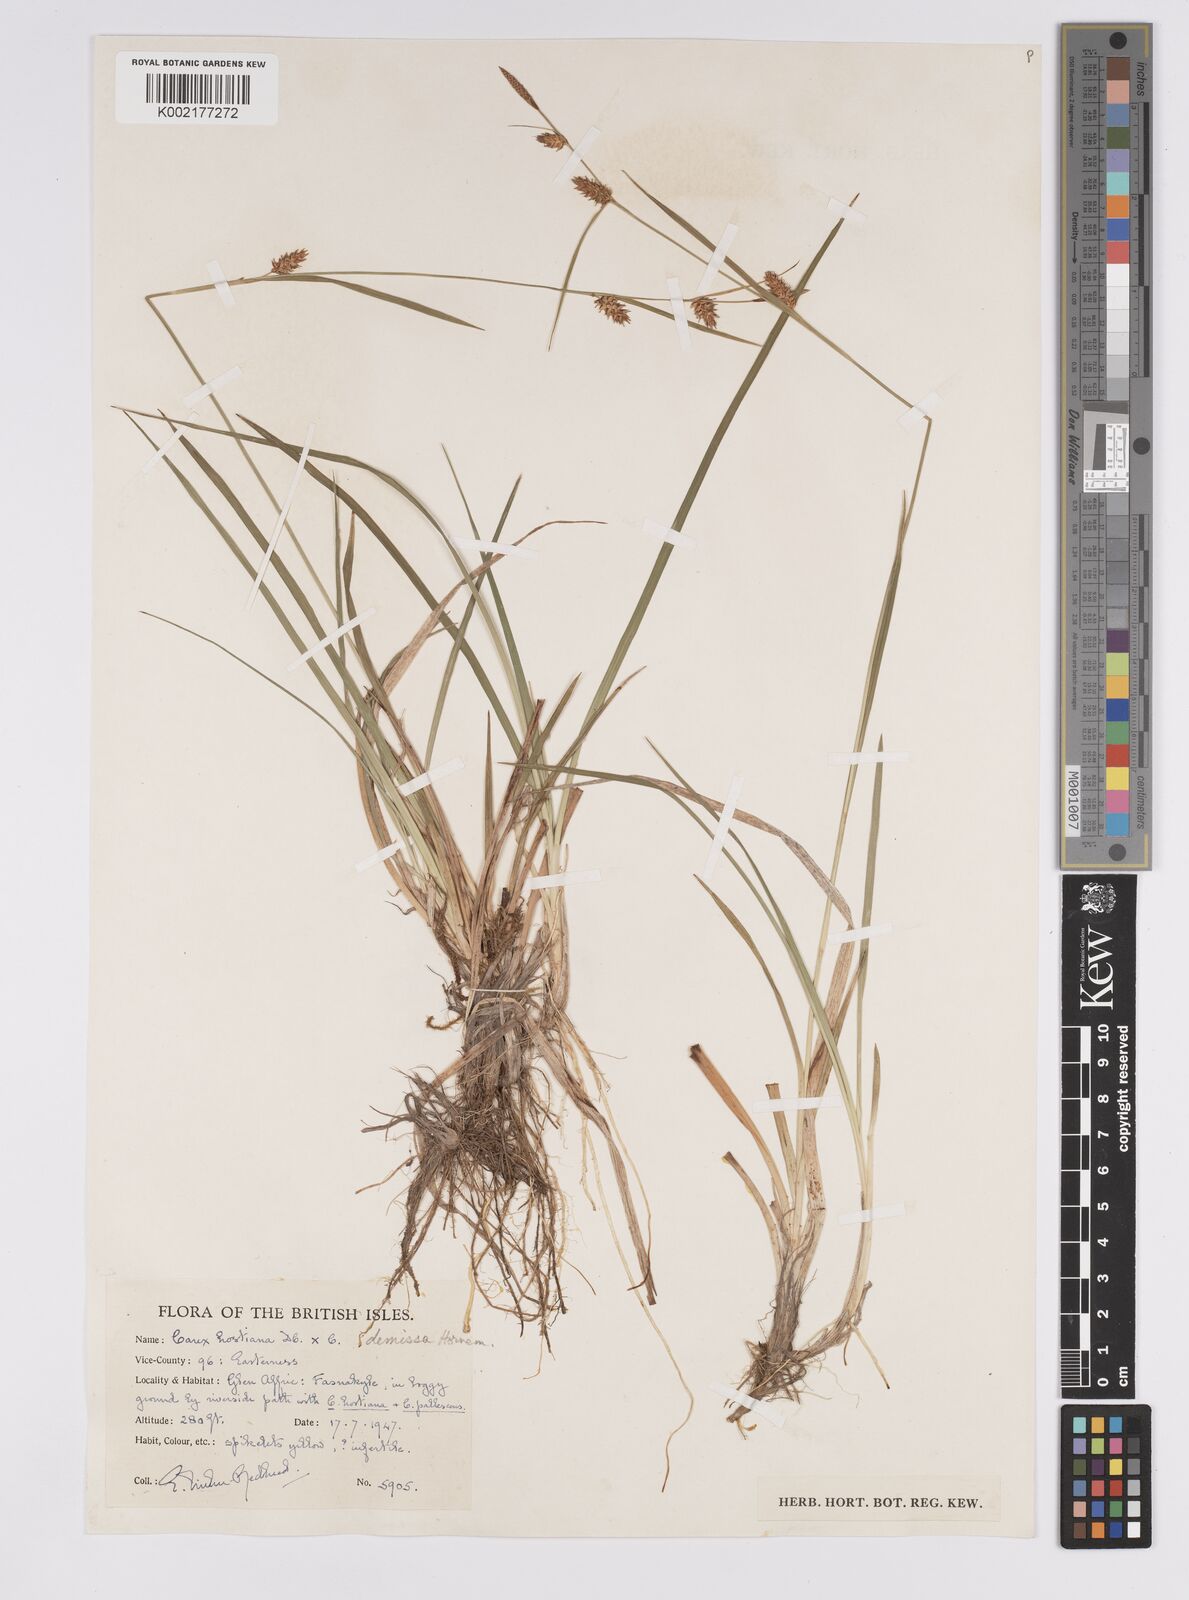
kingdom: Plantae
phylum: Tracheophyta
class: Liliopsida
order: Poales
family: Cyperaceae
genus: Carex
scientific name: Carex hostiana
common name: Tawny sedge
